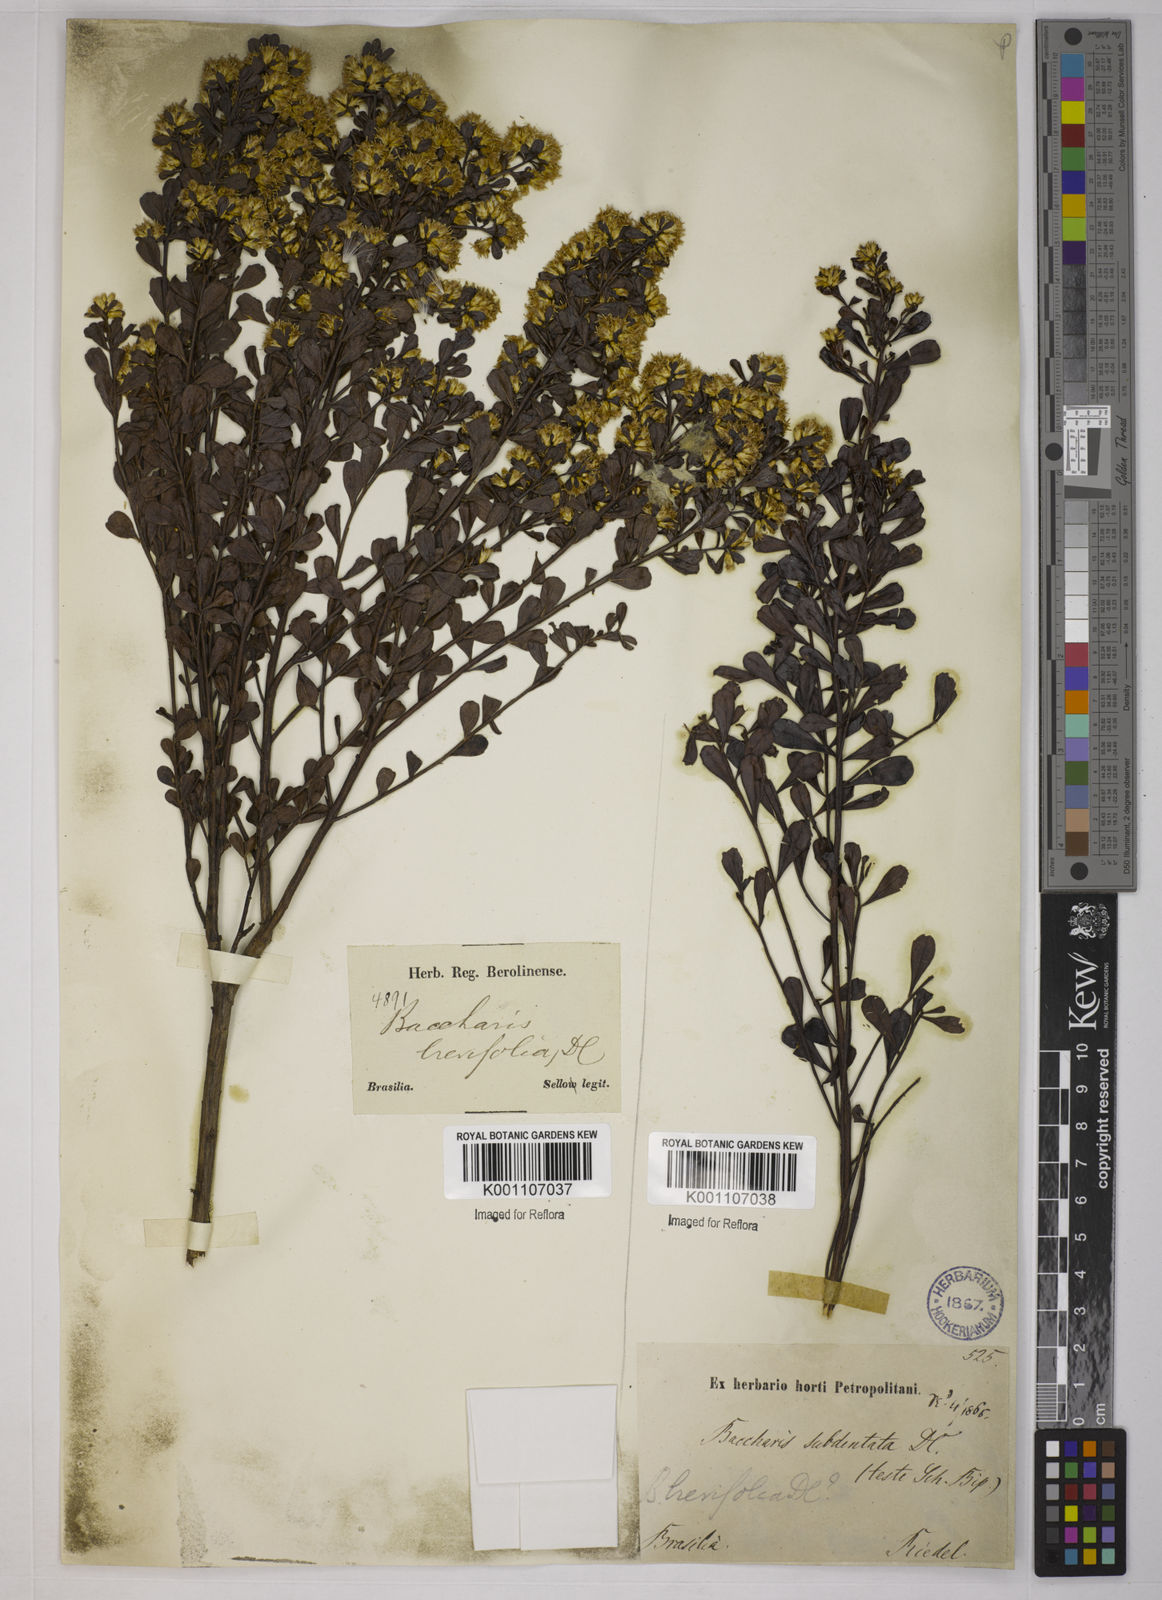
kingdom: Plantae
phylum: Tracheophyta
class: Magnoliopsida
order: Asterales
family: Asteraceae
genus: Baccharis
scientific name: Baccharis brevifolia
